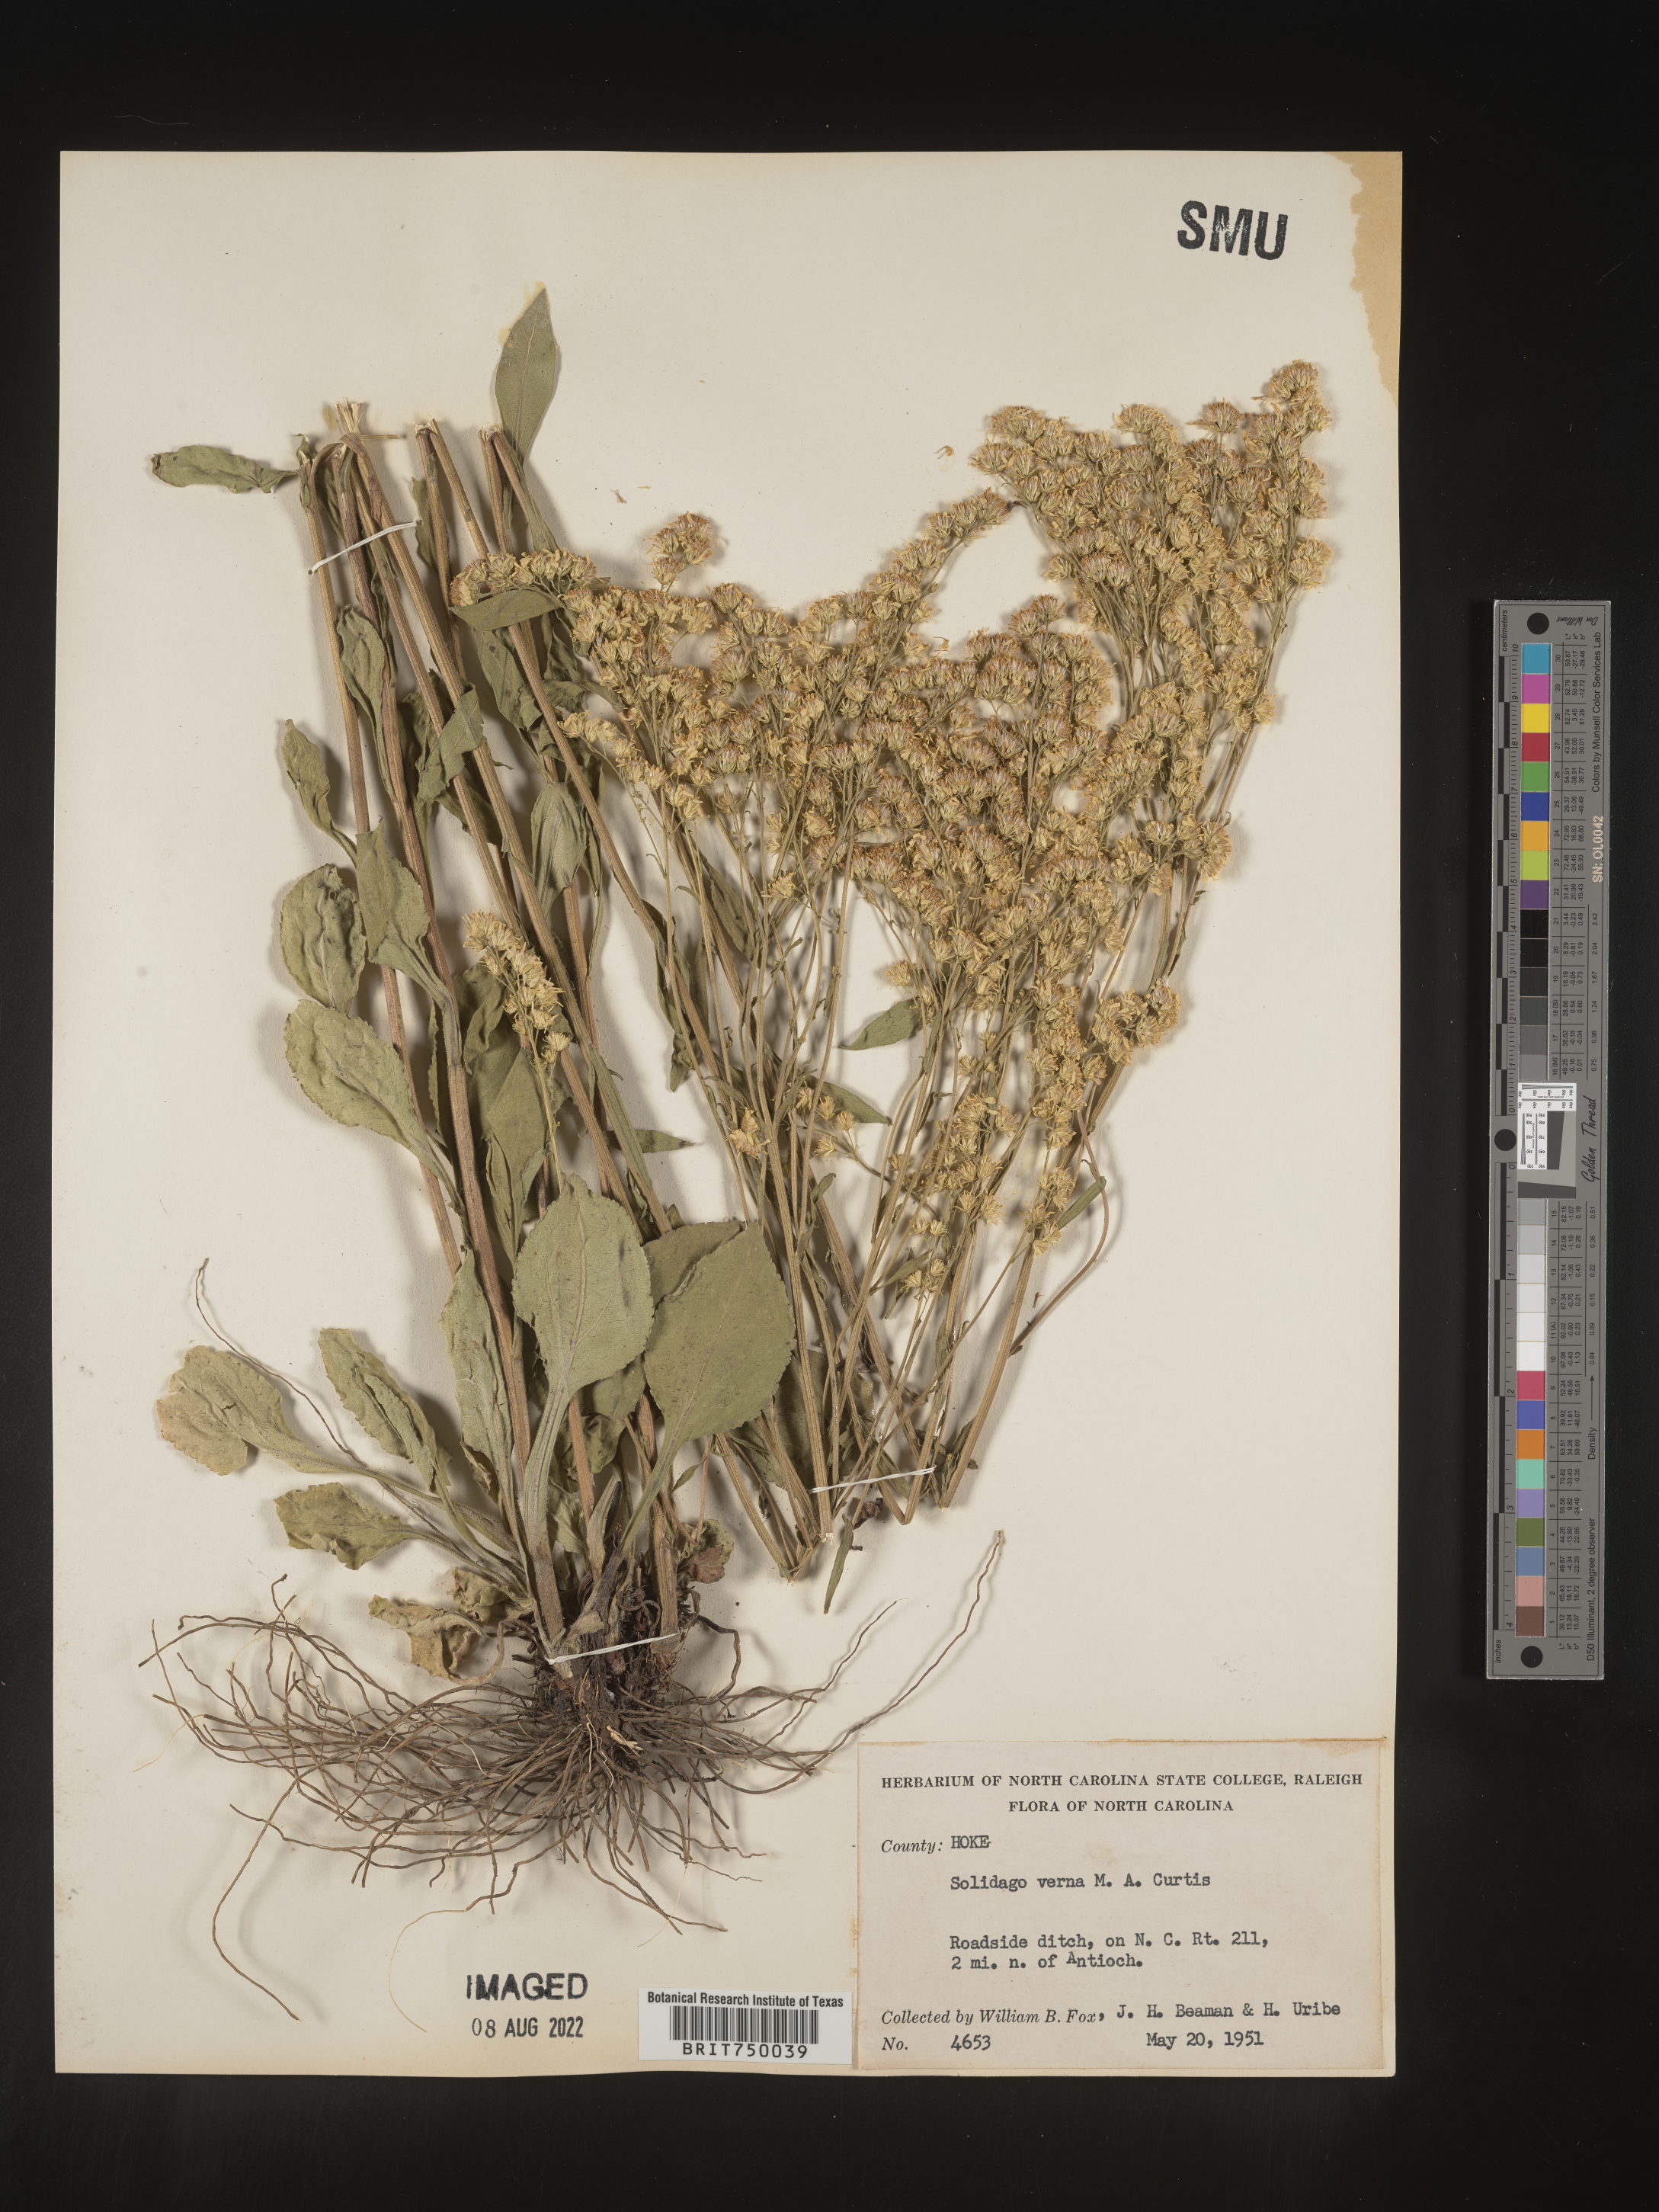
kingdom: Plantae
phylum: Tracheophyta
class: Magnoliopsida
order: Asterales
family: Asteraceae
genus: Solidago
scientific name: Solidago verna
